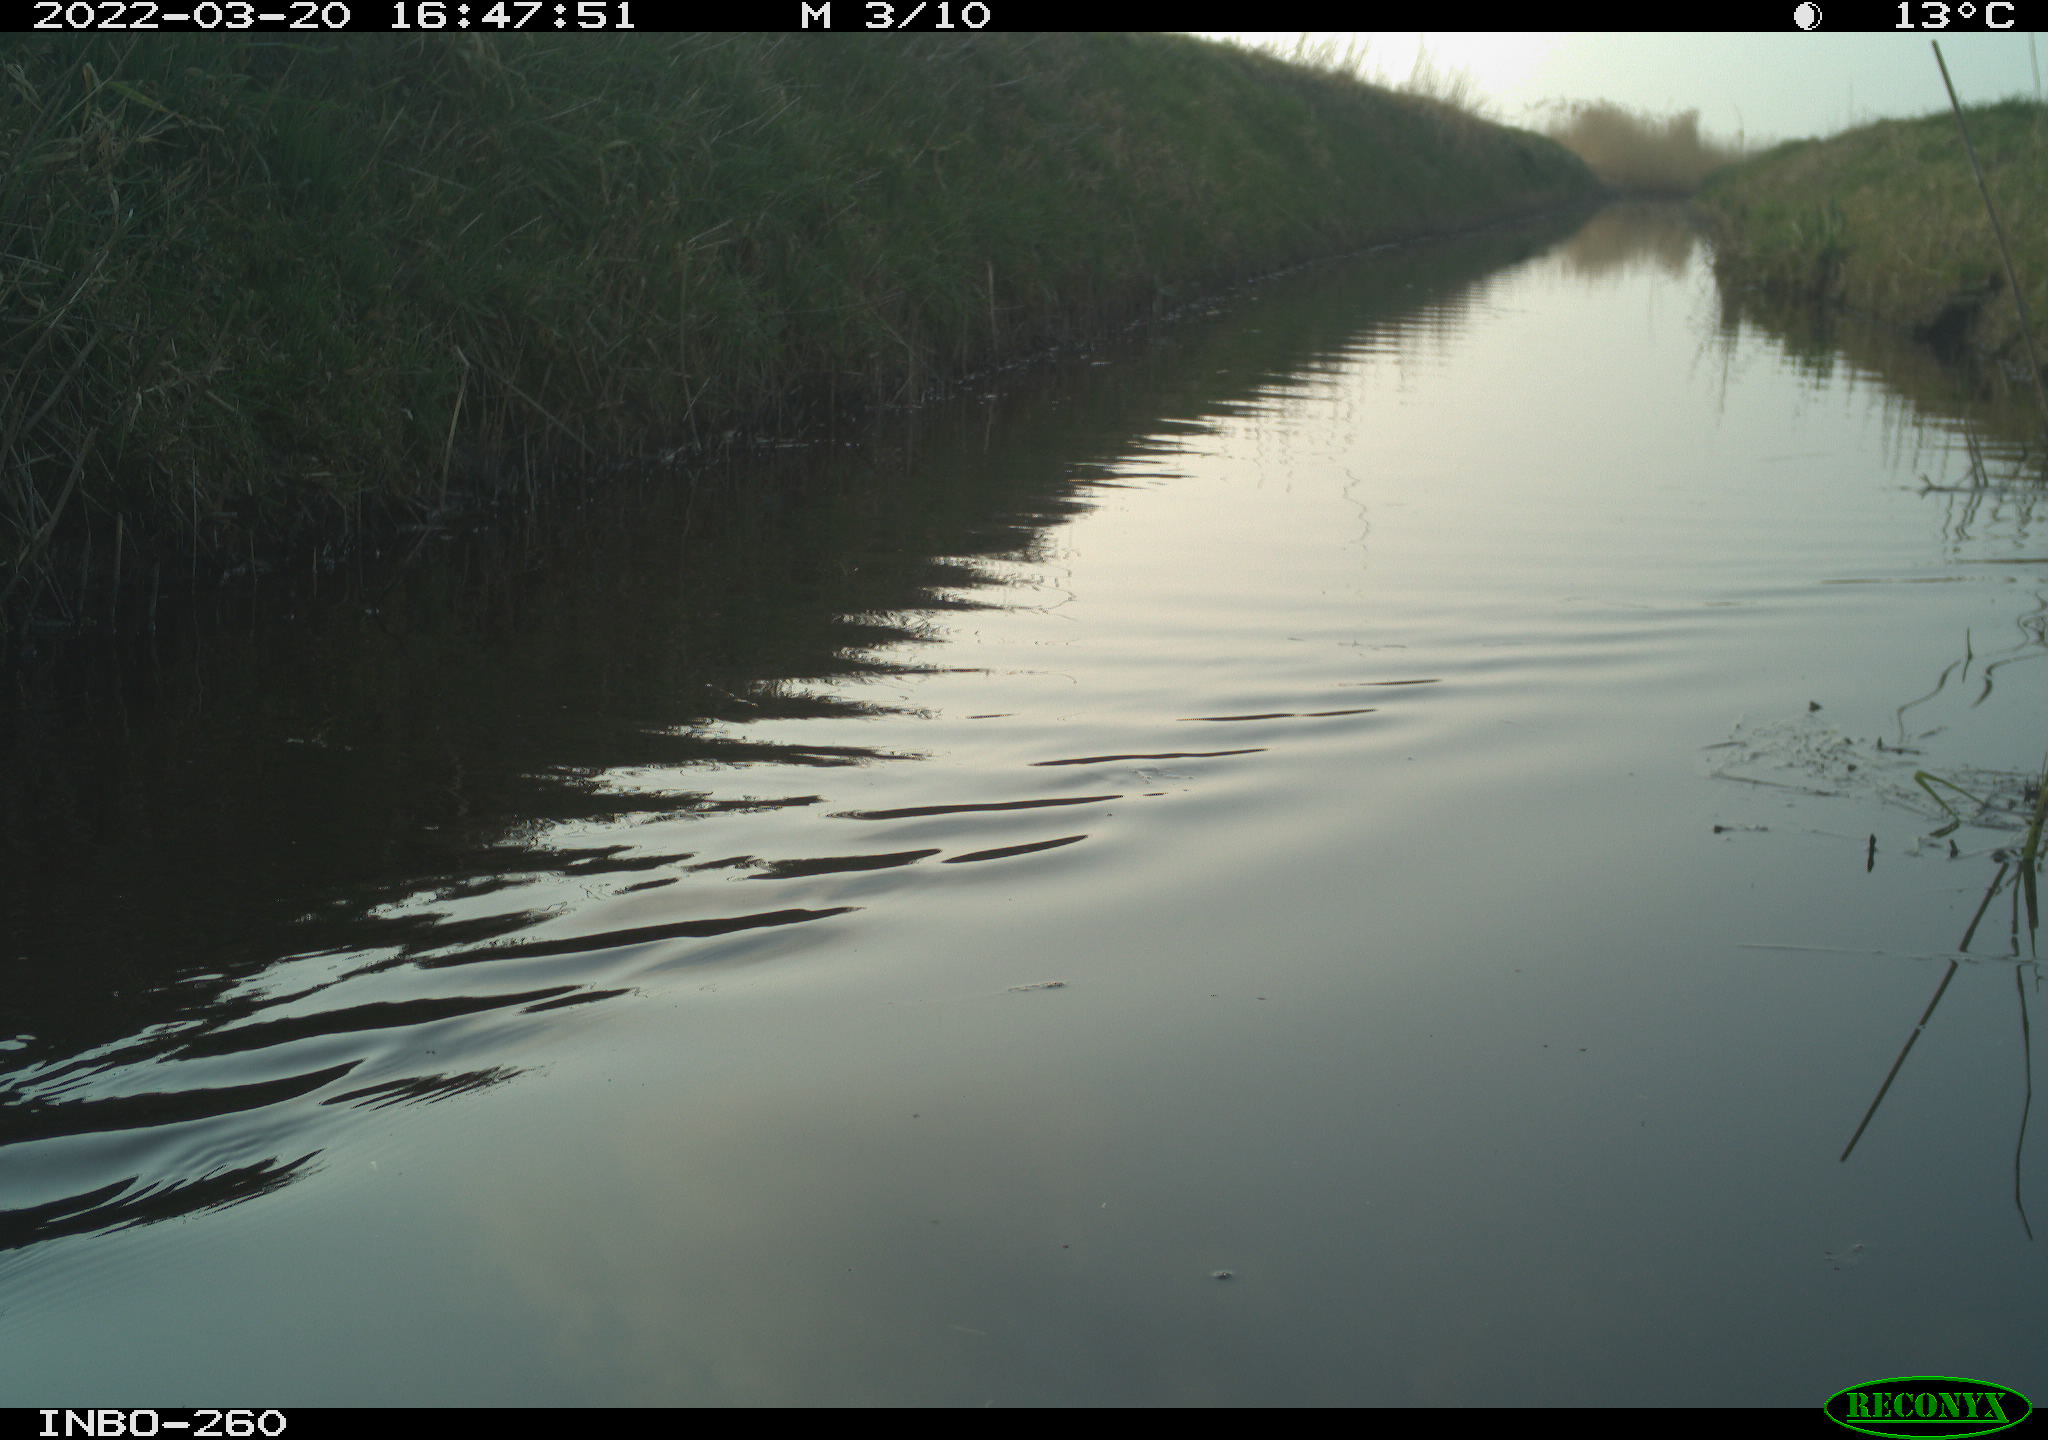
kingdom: Animalia
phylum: Chordata
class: Aves
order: Gruiformes
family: Rallidae
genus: Fulica
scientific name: Fulica atra
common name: Eurasian coot
